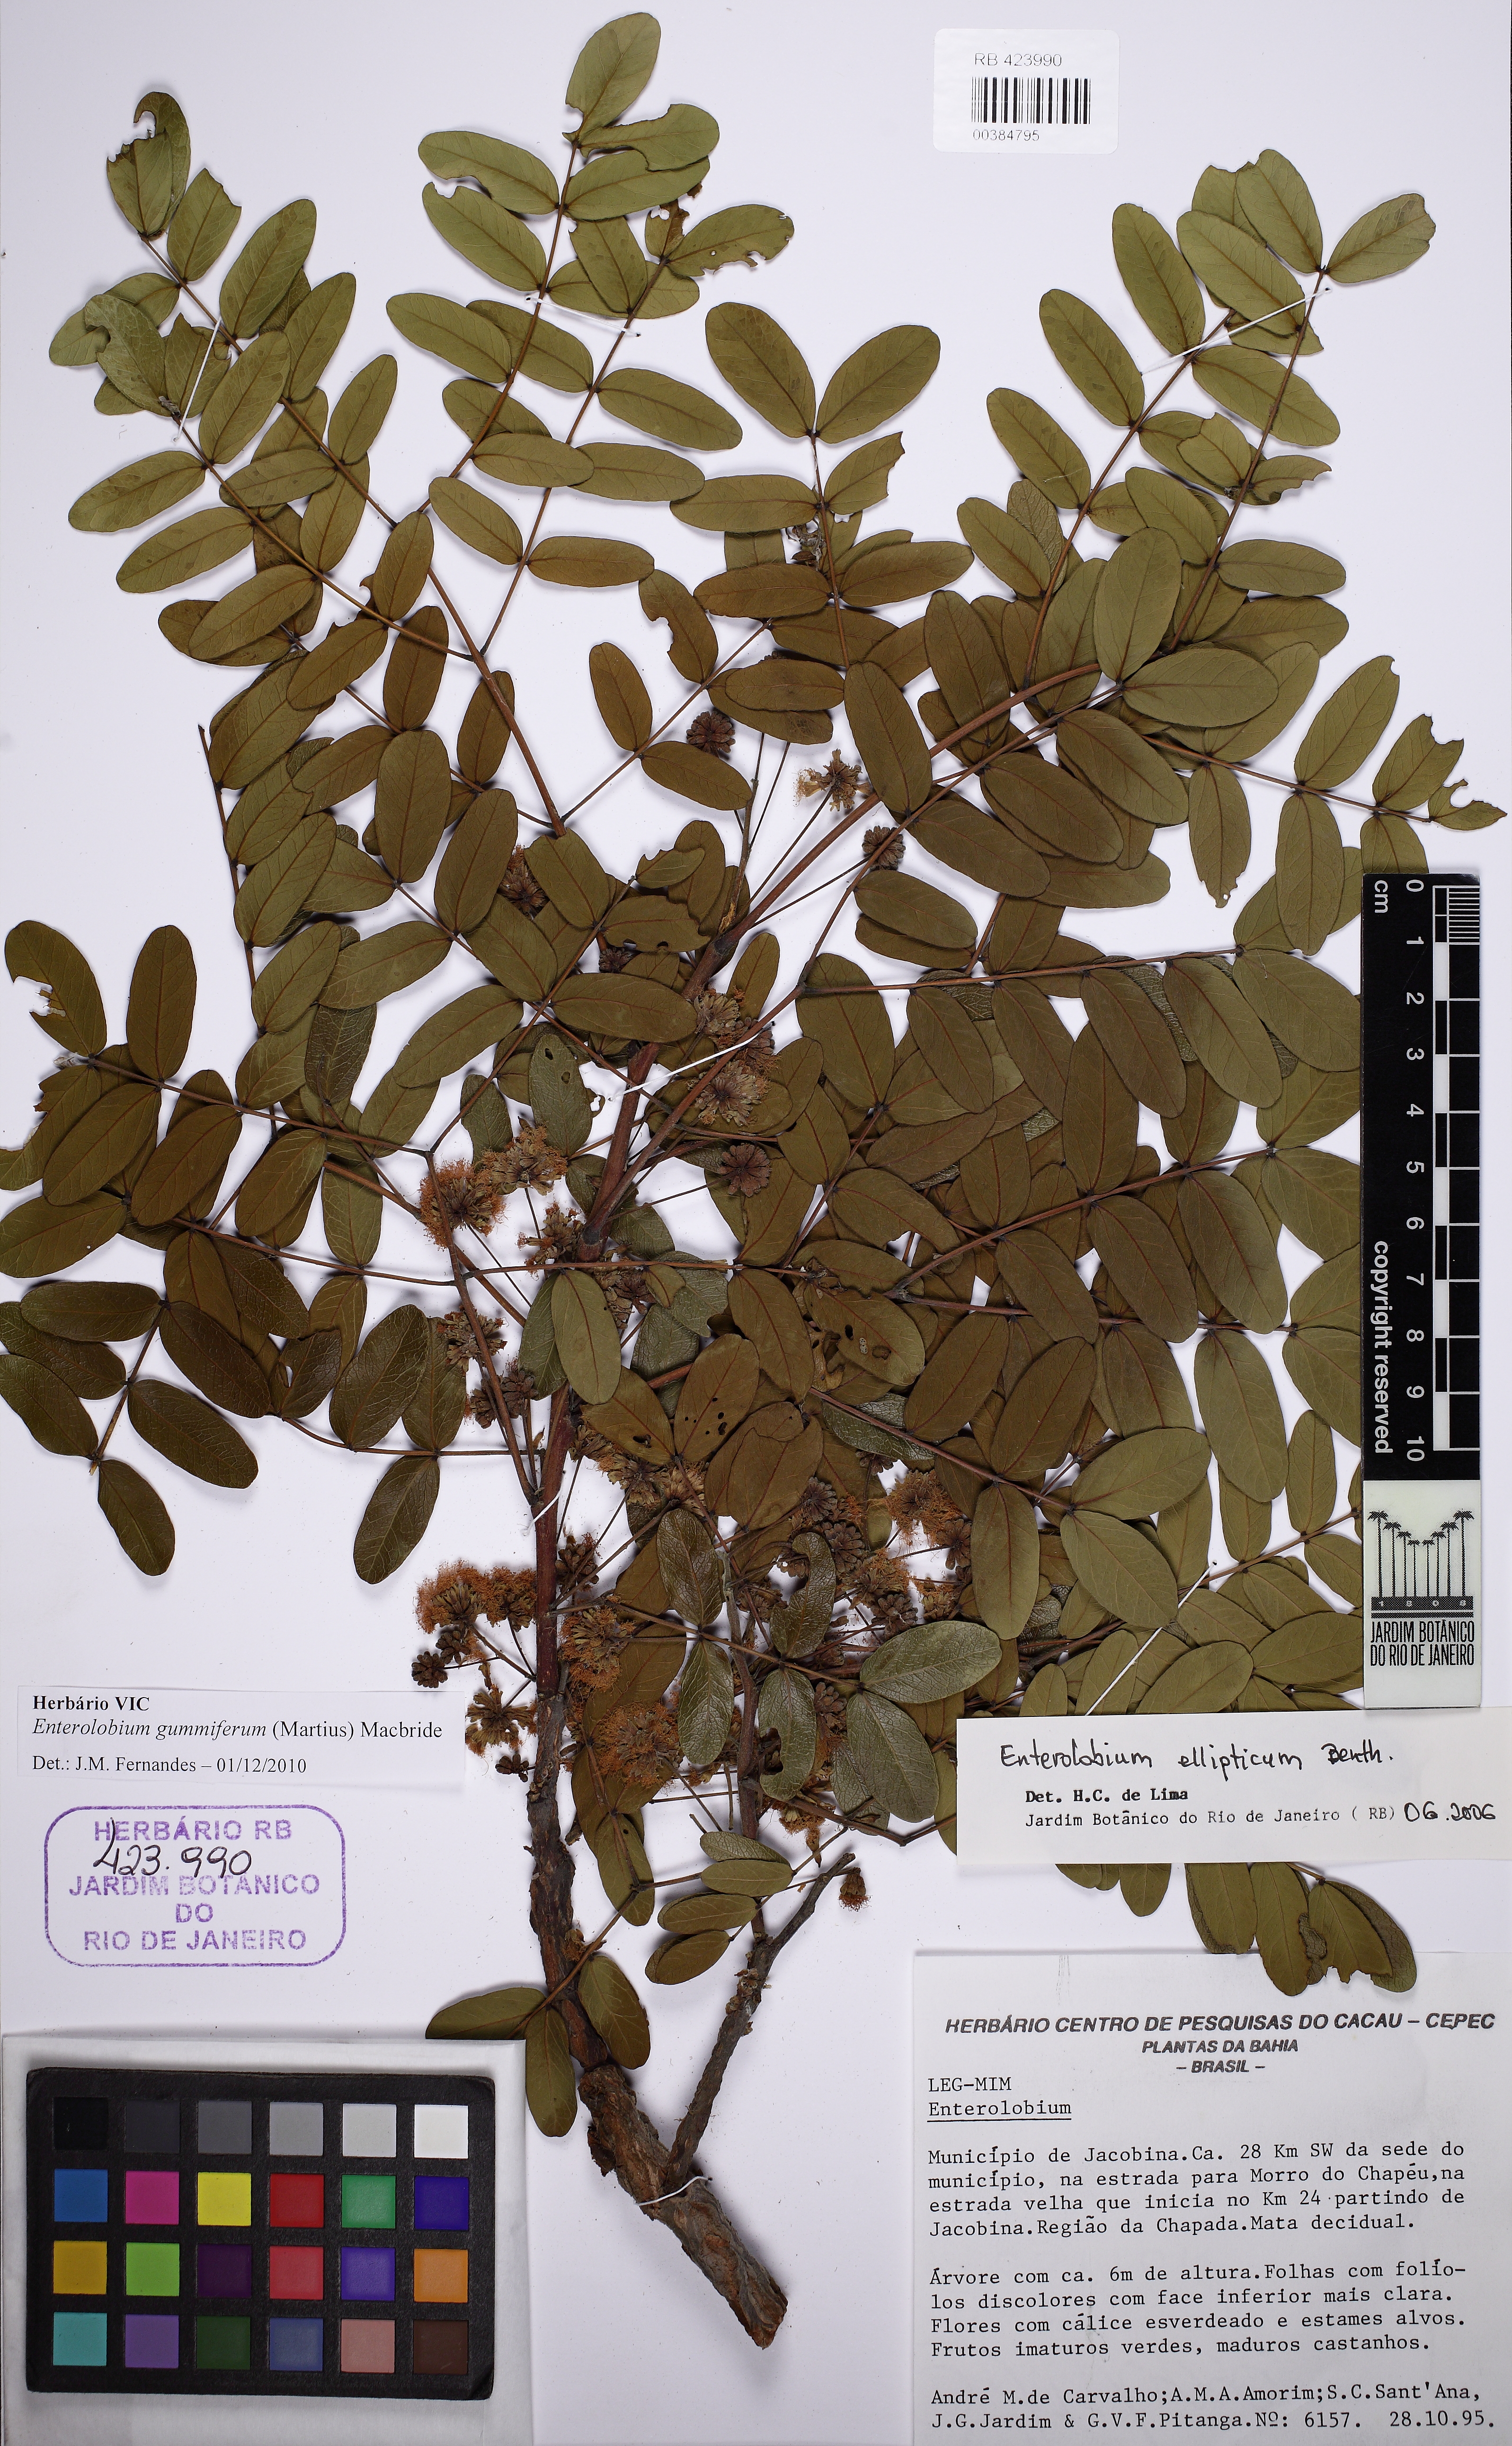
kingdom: Plantae
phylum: Tracheophyta
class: Magnoliopsida
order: Fabales
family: Fabaceae
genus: Enterolobium
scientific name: Enterolobium gummiferum
